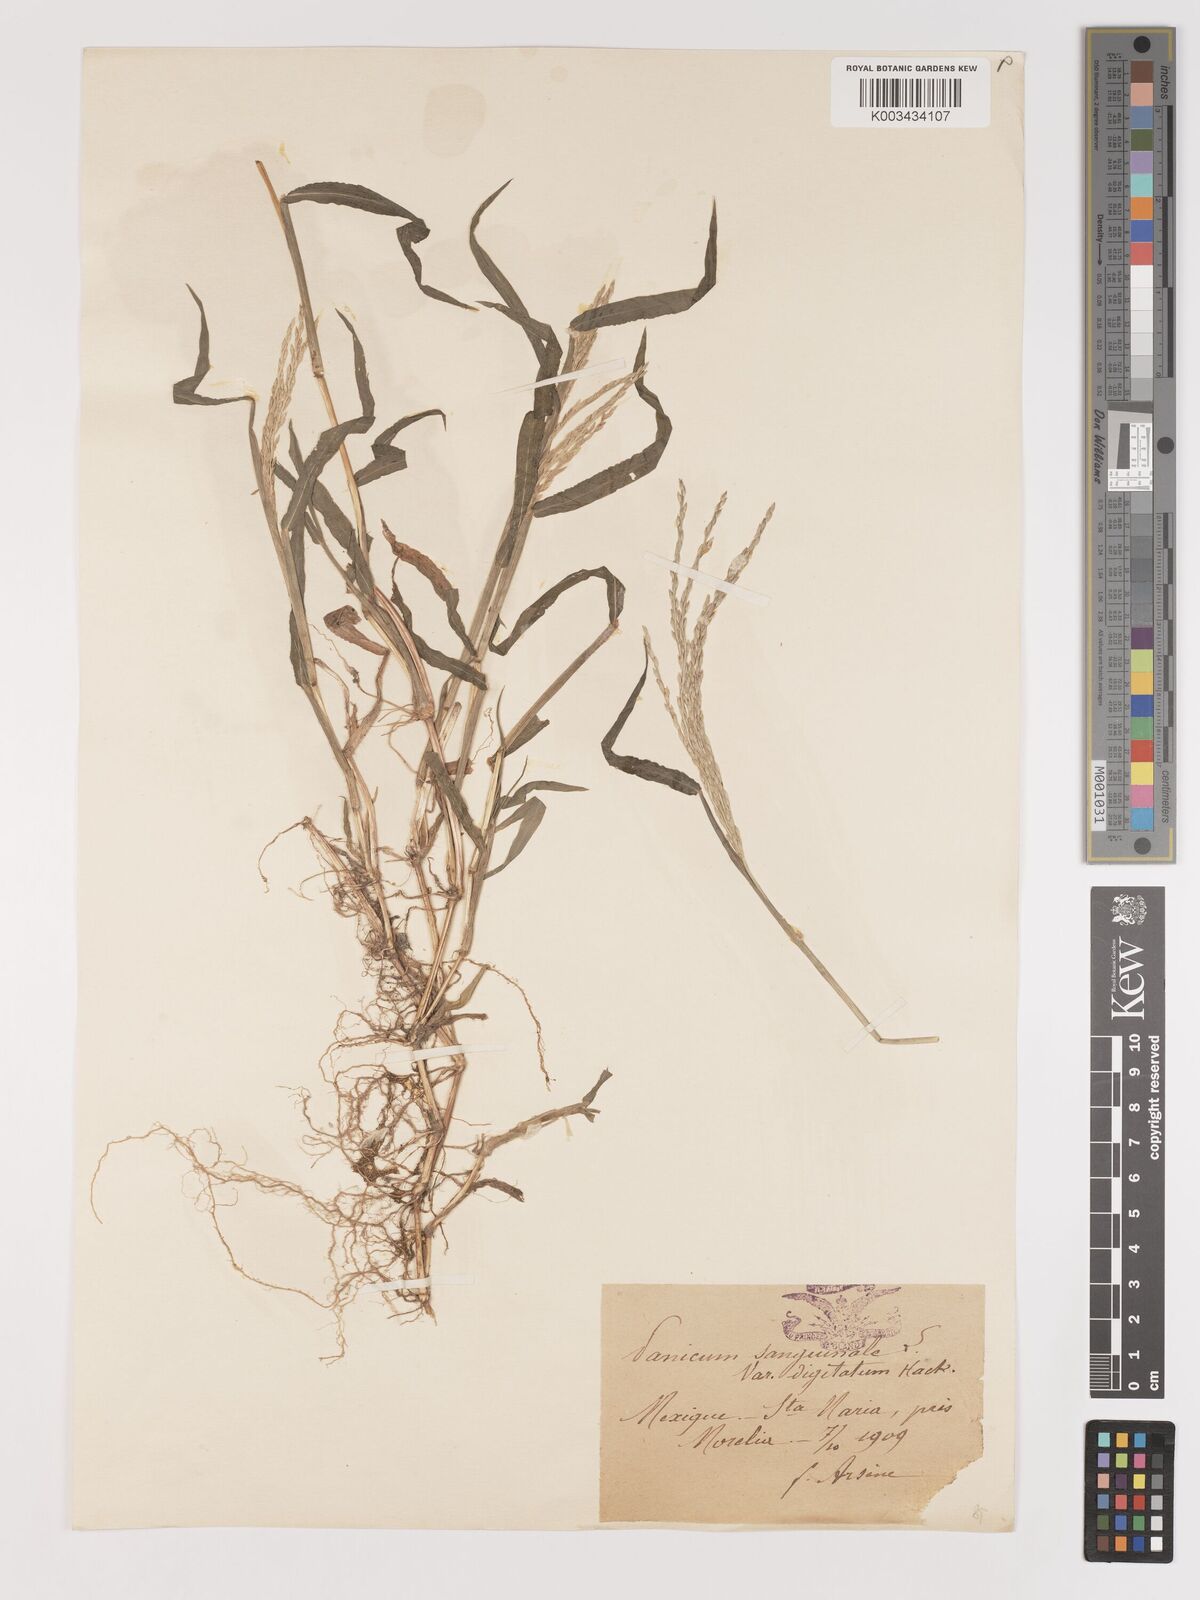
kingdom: Plantae
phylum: Tracheophyta
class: Liliopsida
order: Poales
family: Poaceae
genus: Digitaria
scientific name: Digitaria ciliaris
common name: Tropical finger-grass
